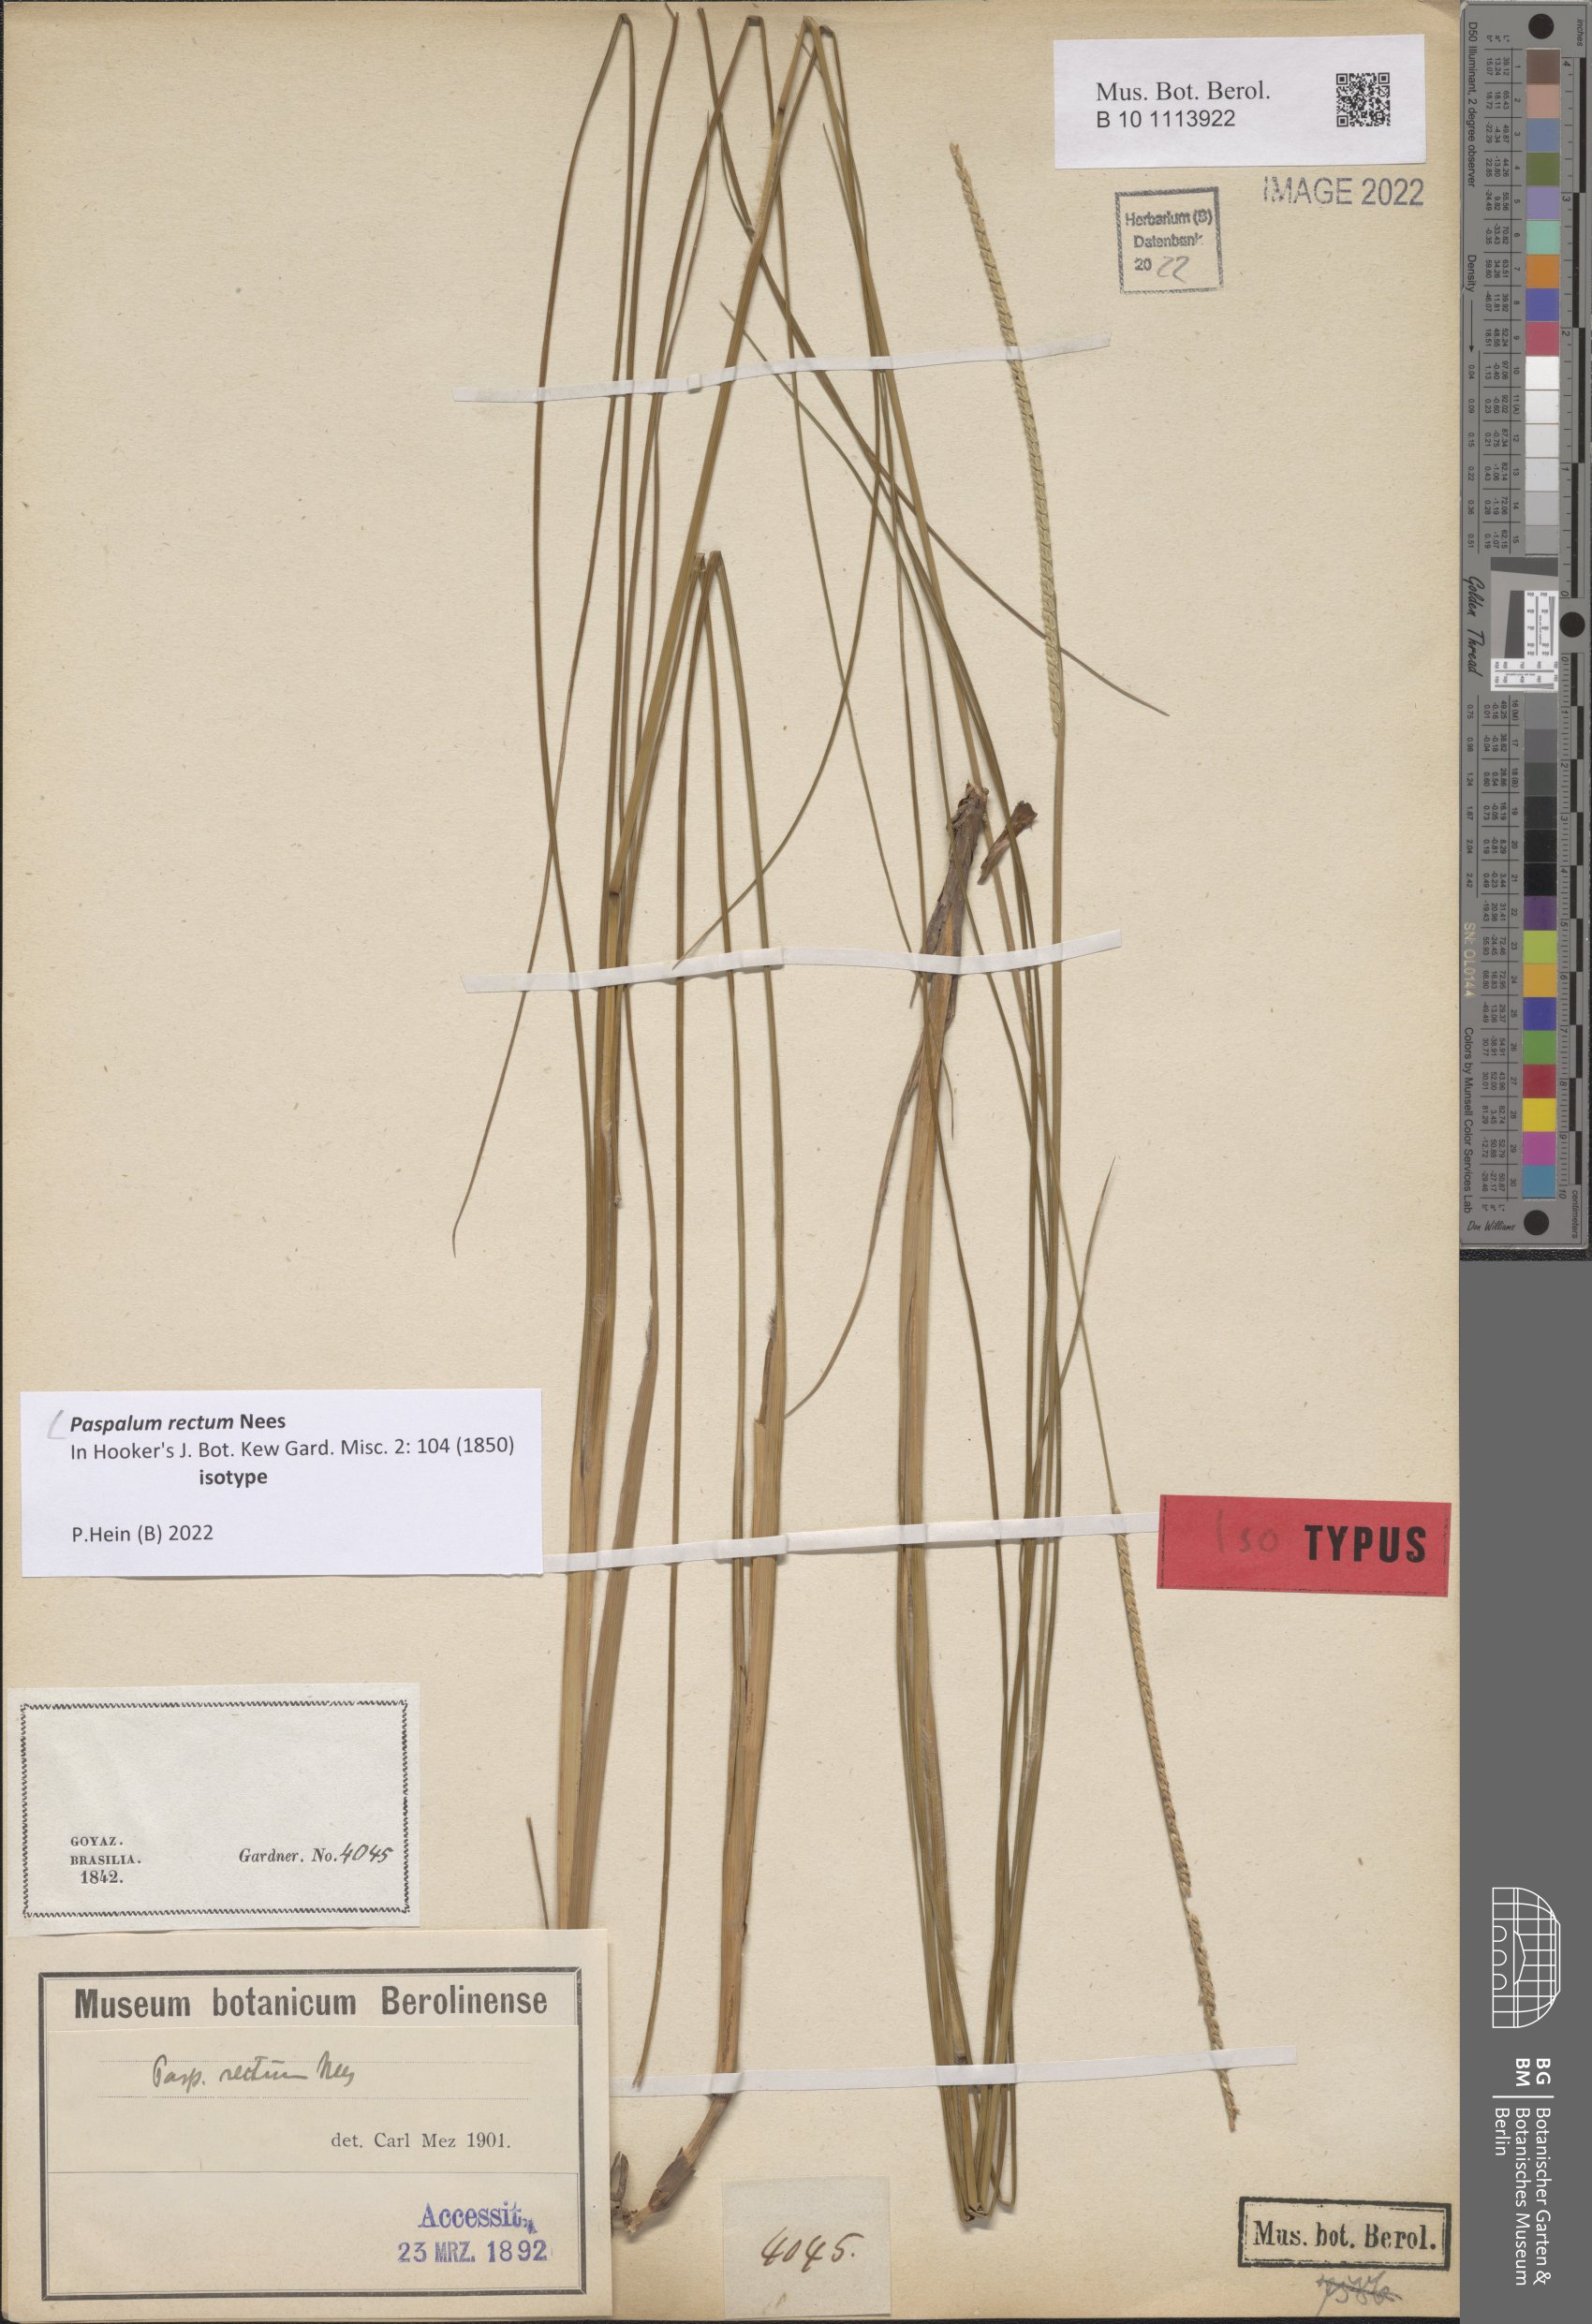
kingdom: Plantae
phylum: Tracheophyta
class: Liliopsida
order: Poales
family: Poaceae
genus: Paspalum
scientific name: Paspalum rectum
